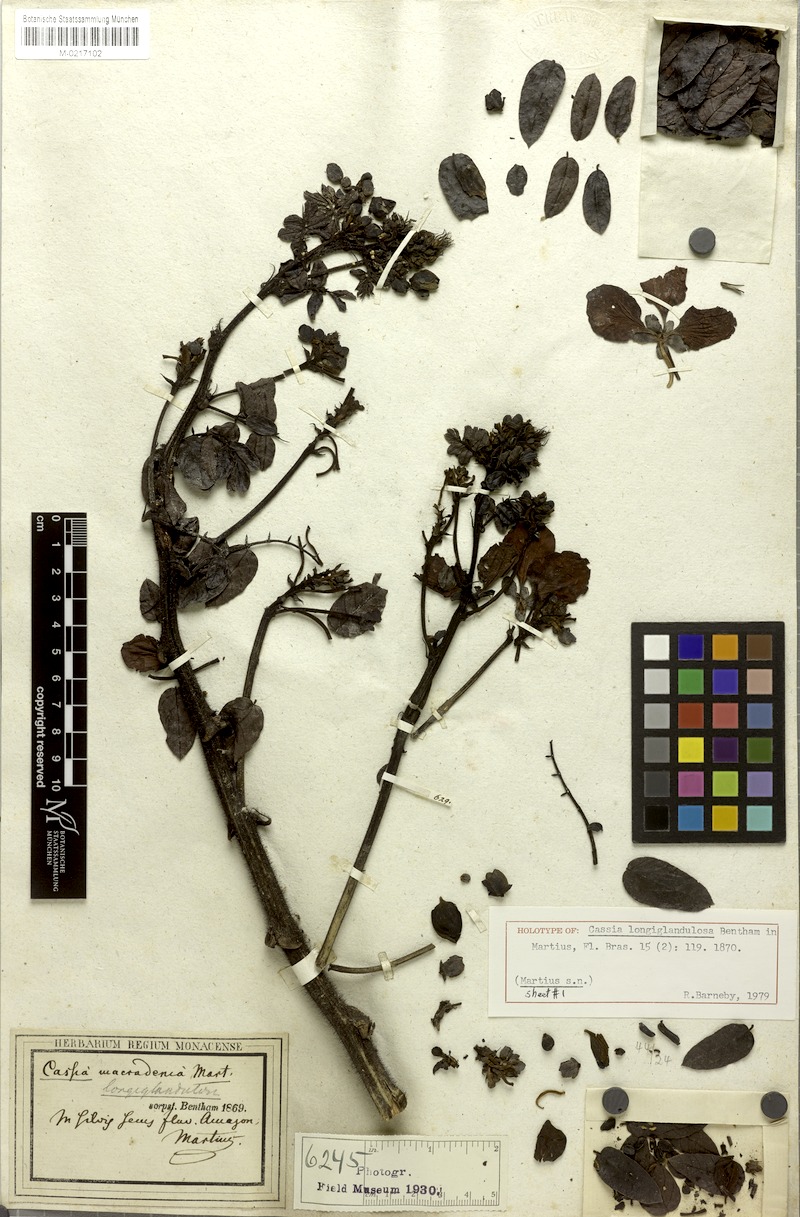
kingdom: Plantae
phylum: Tracheophyta
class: Magnoliopsida
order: Fabales
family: Fabaceae
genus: Senna
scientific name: Senna occidentalis
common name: Septicweed
